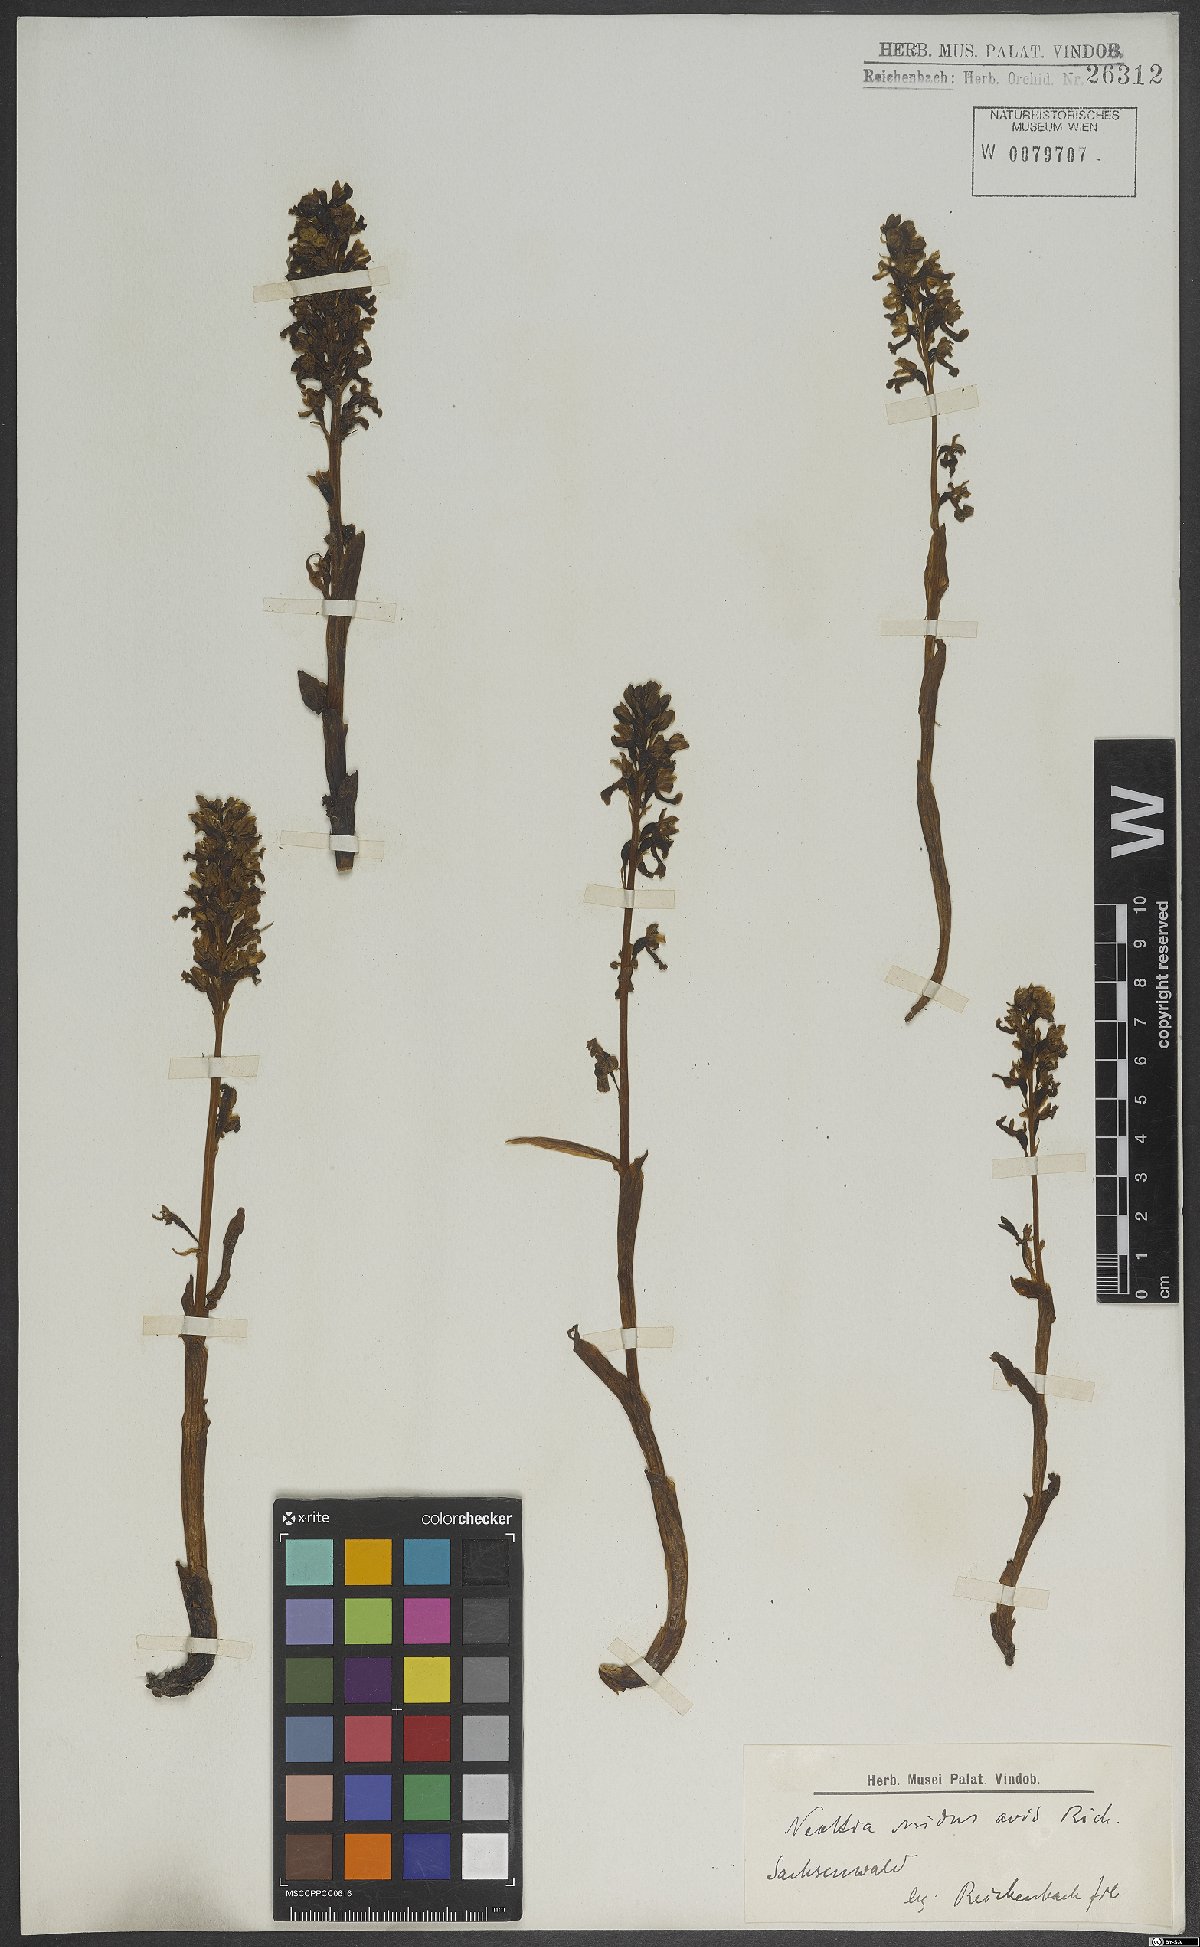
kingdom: Plantae
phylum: Tracheophyta
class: Liliopsida
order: Asparagales
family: Orchidaceae
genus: Neottia
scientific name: Neottia nidus-avis
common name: Bird's-nest orchid
